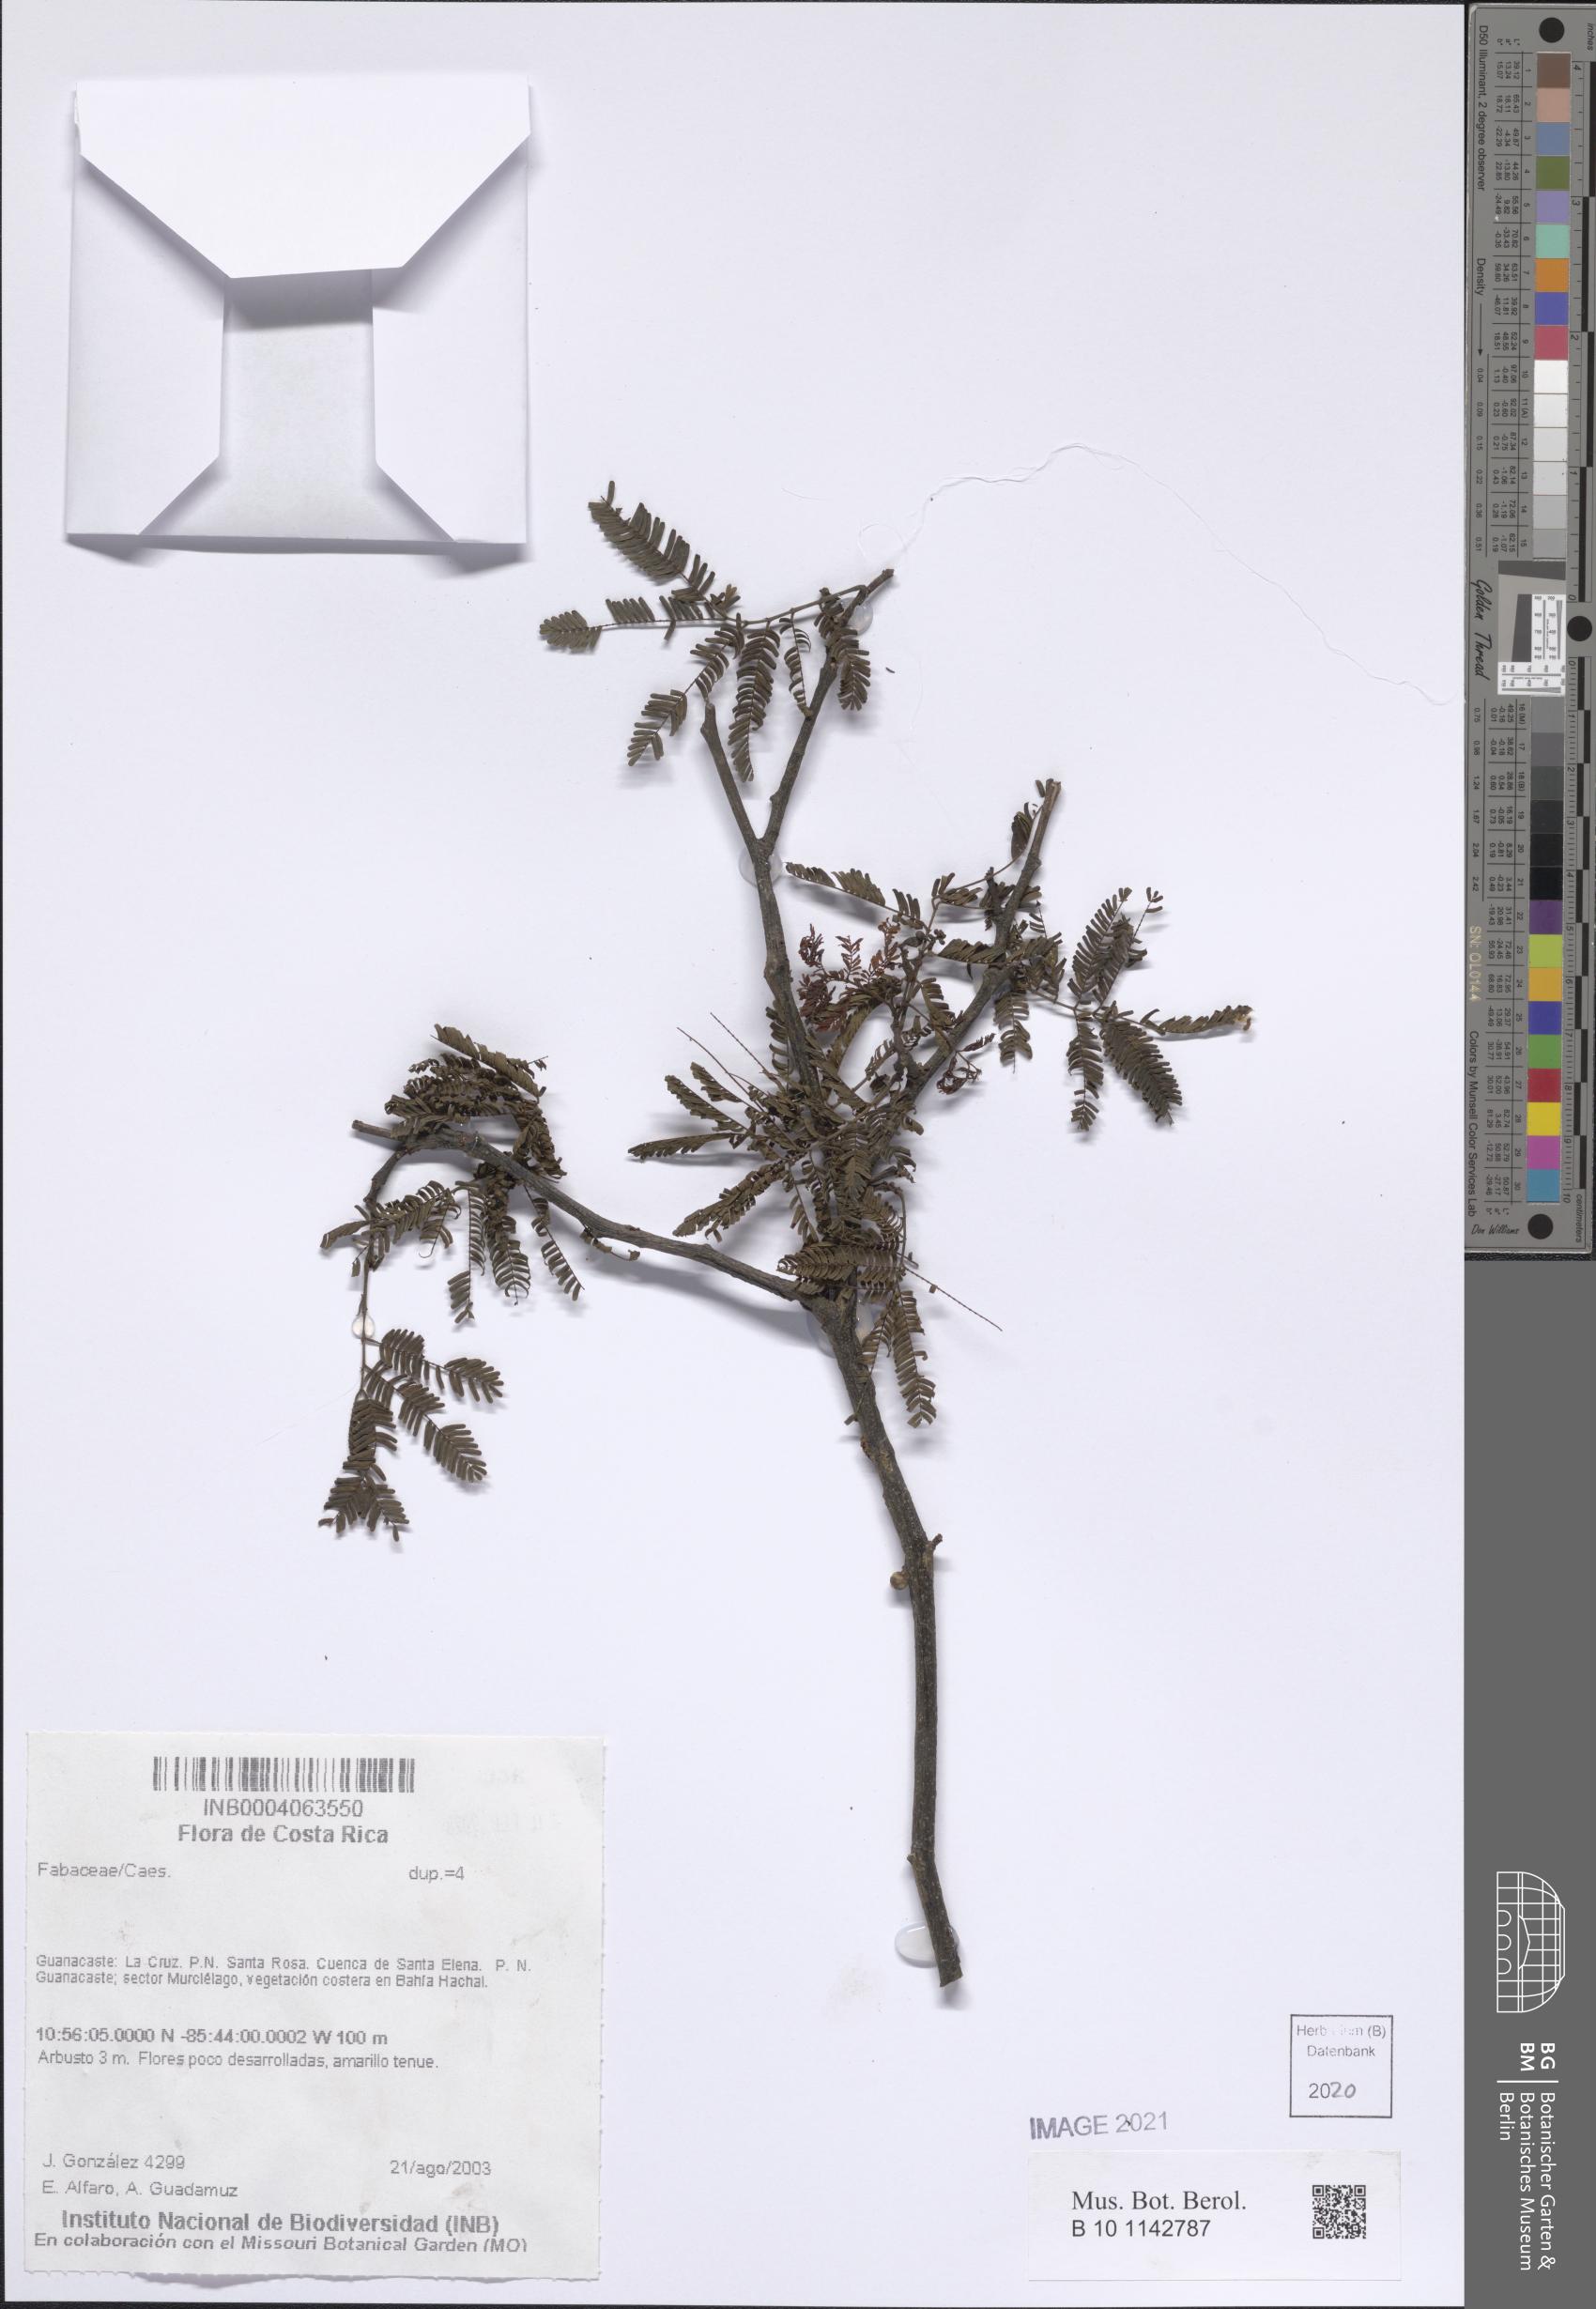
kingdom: Plantae
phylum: Tracheophyta
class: Magnoliopsida
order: Fabales
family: Fabaceae
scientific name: Fabaceae
